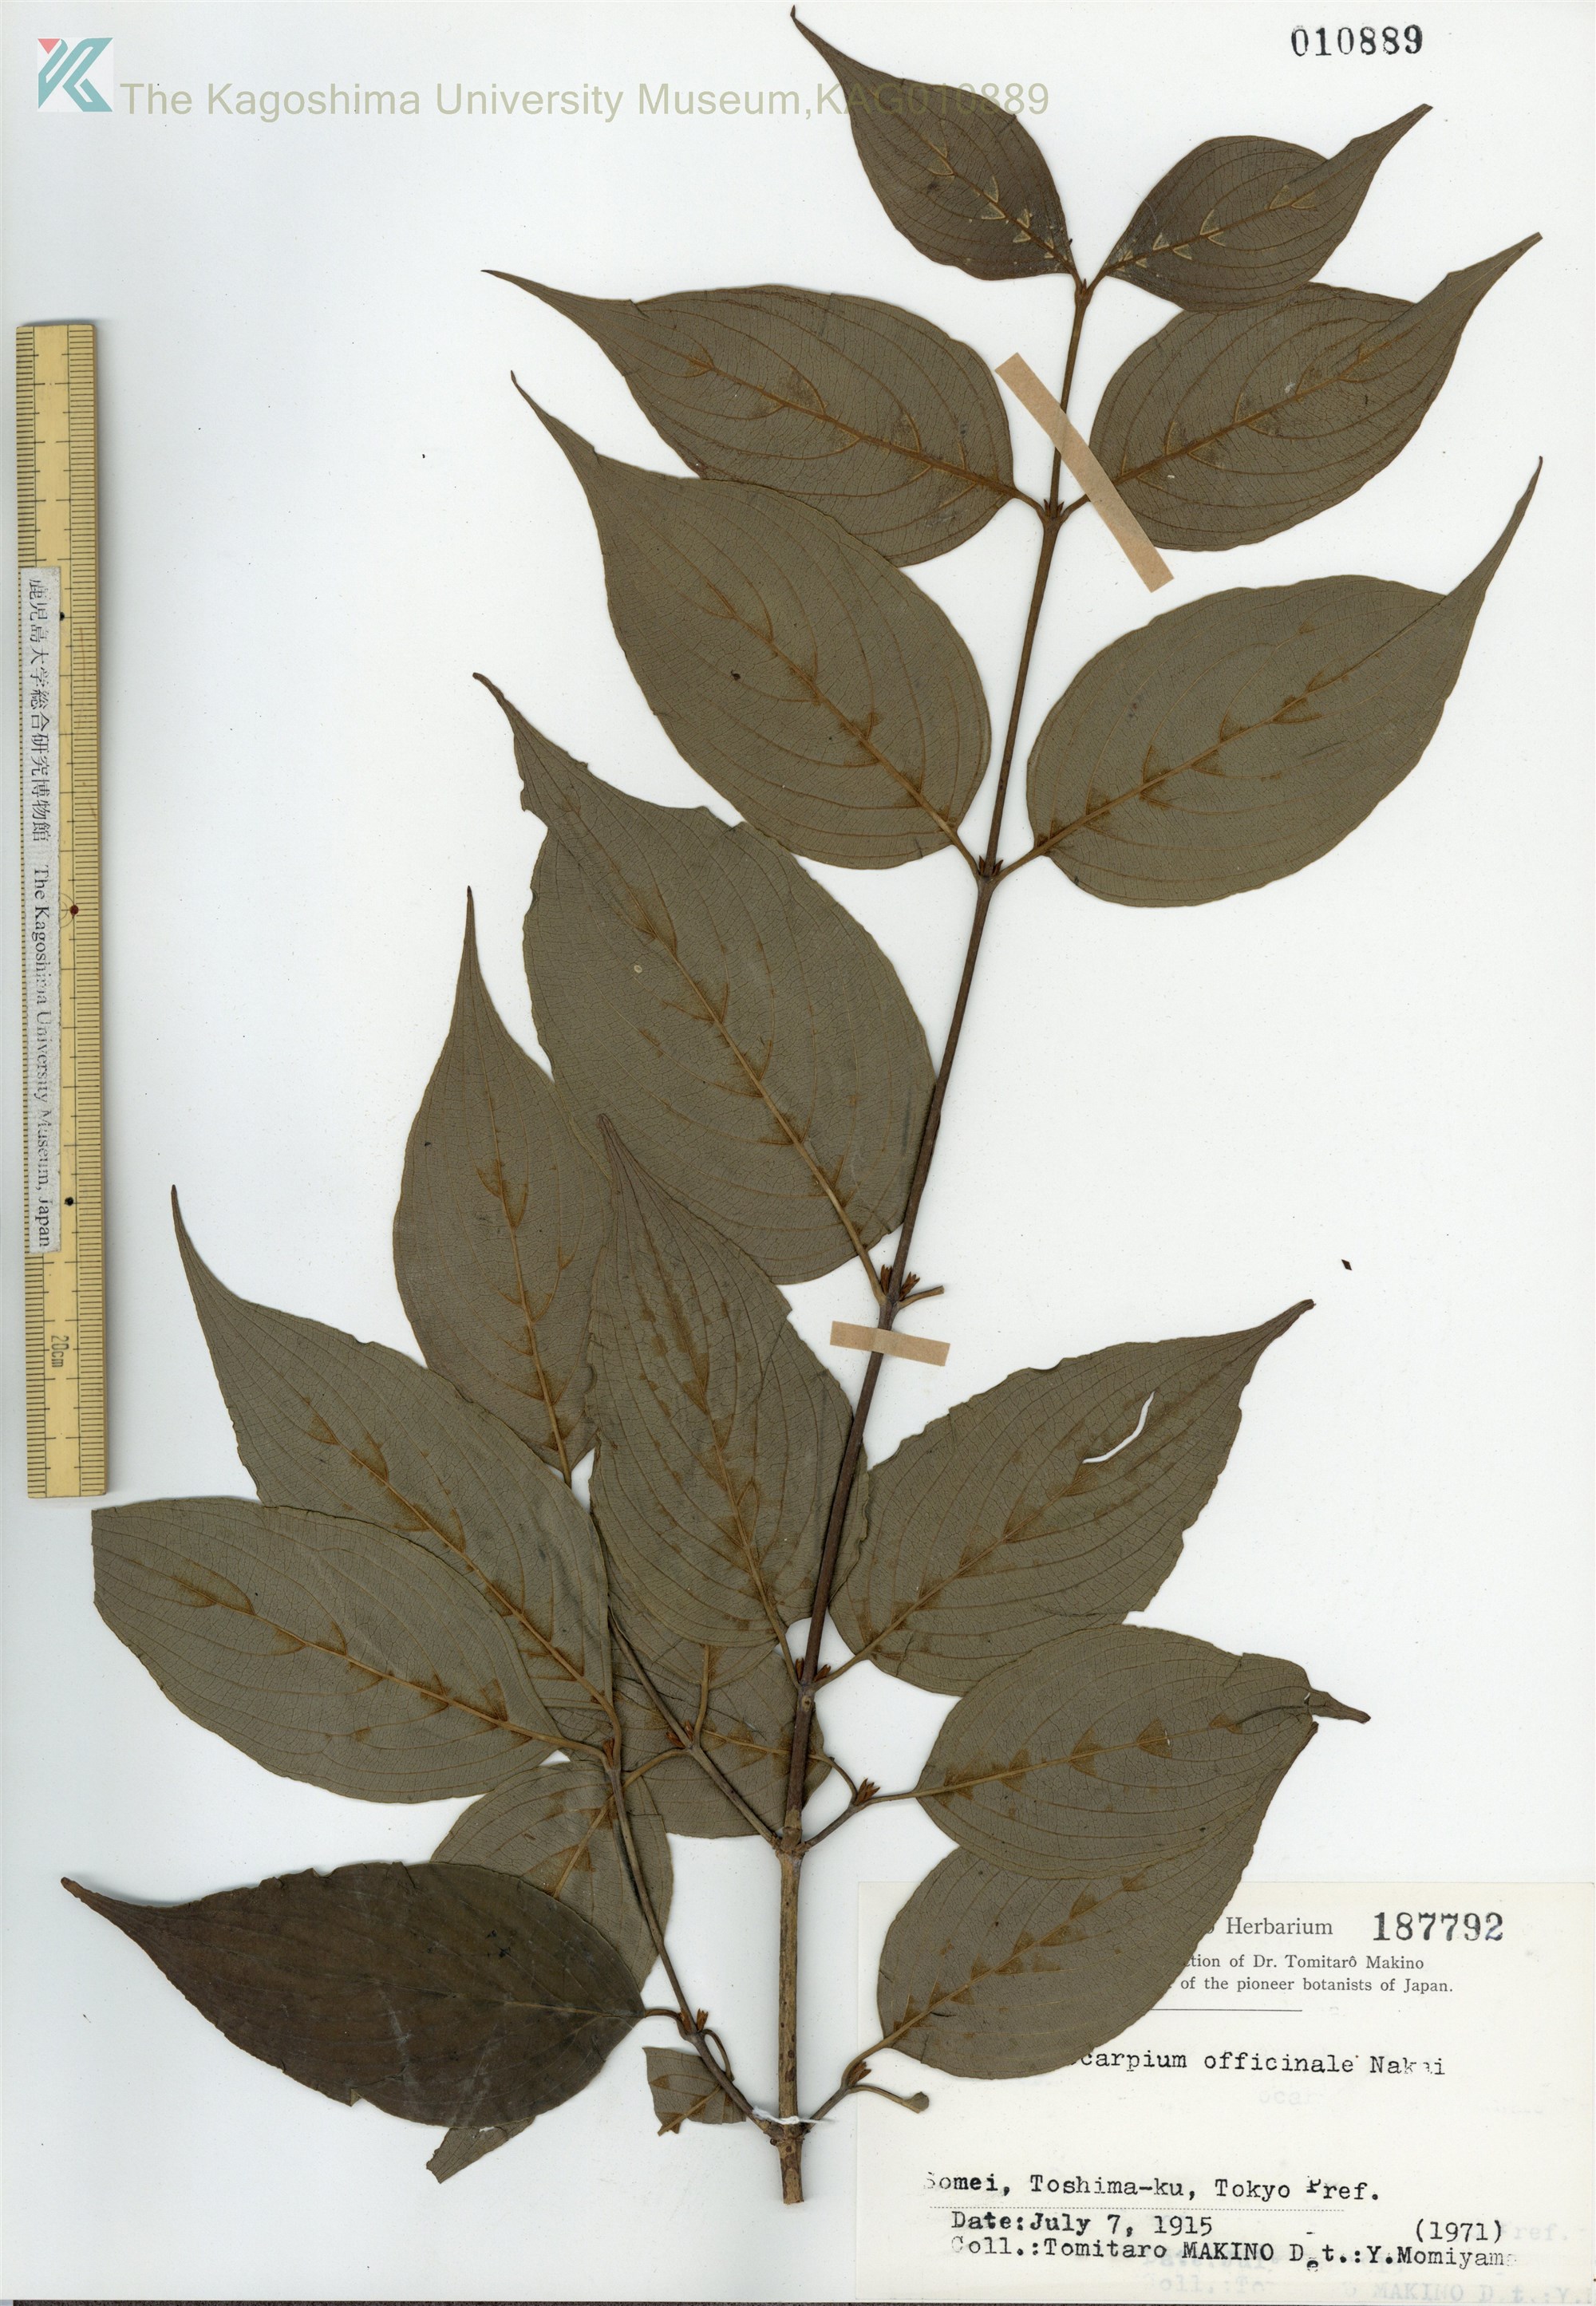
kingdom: Plantae
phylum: Tracheophyta
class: Magnoliopsida
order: Cornales
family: Cornaceae
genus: Cornus
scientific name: Cornus officinalis
